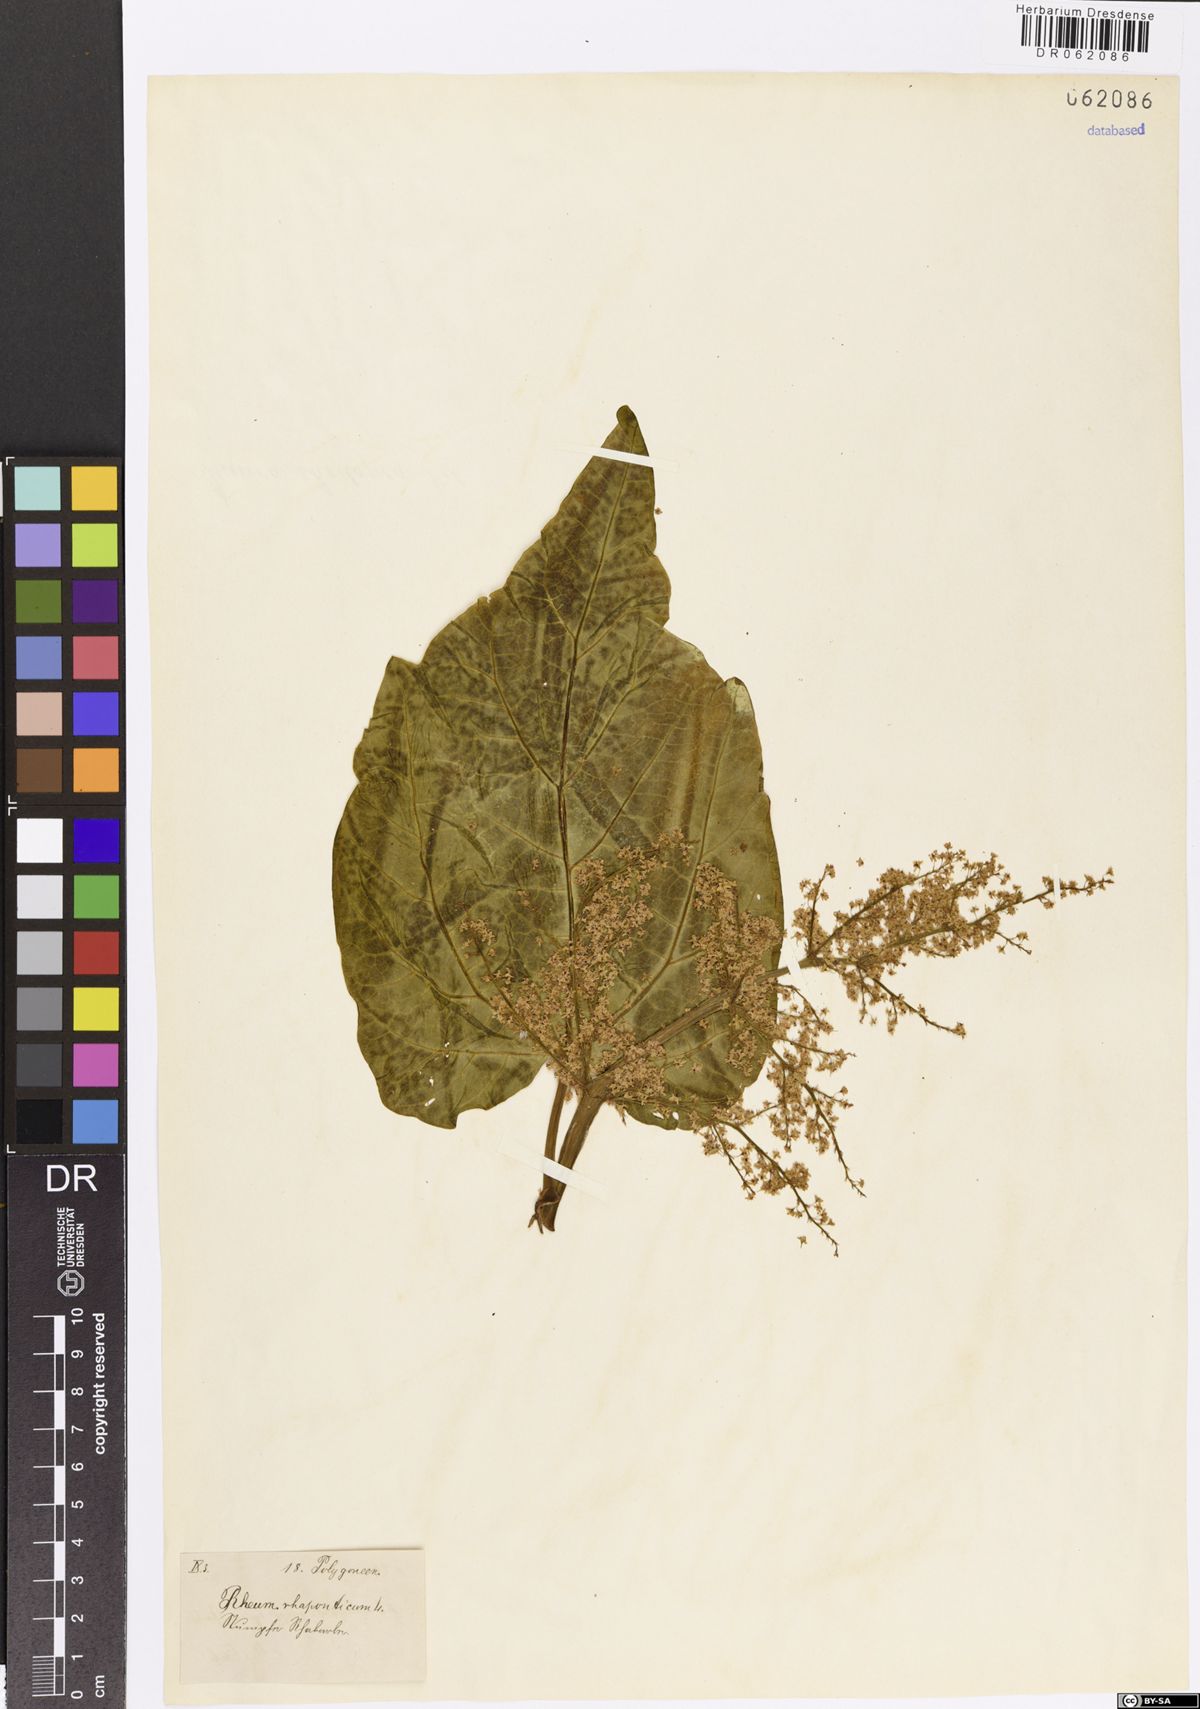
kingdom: Plantae
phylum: Tracheophyta
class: Magnoliopsida
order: Caryophyllales
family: Polygonaceae
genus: Rheum
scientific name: Rheum rhaponticum
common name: Rhubarb
